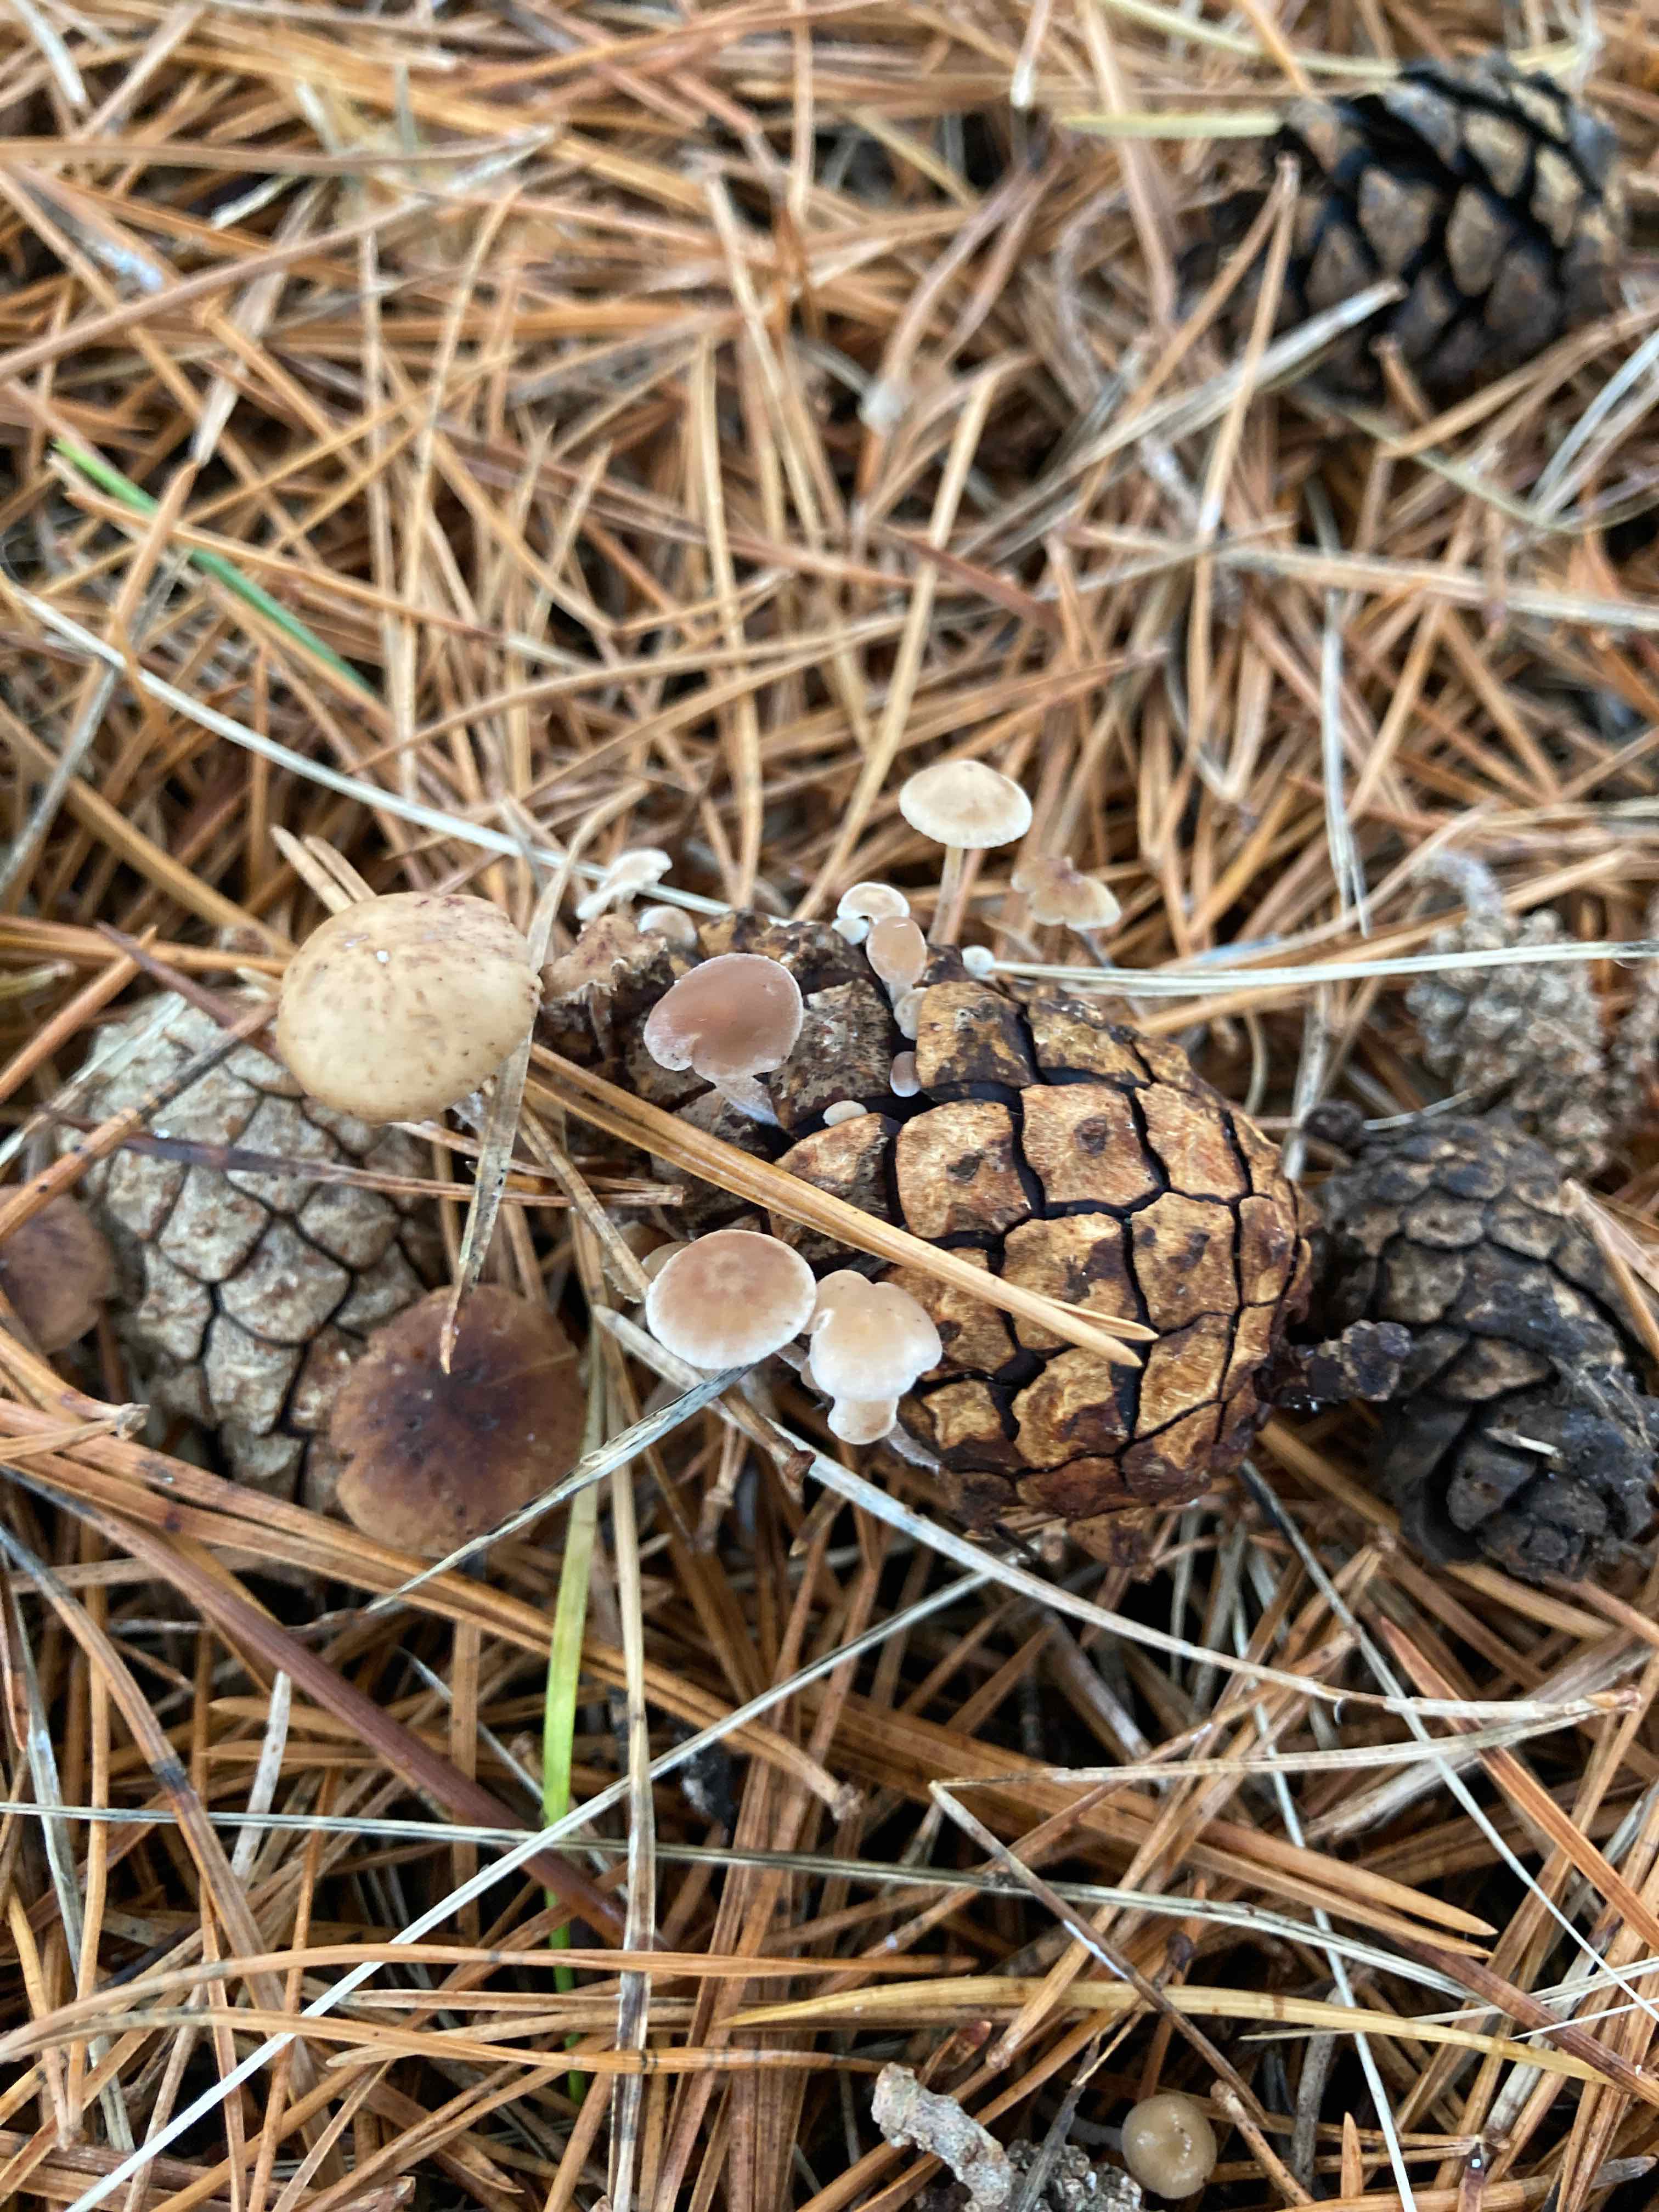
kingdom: Fungi
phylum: Basidiomycota
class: Agaricomycetes
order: Agaricales
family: Marasmiaceae
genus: Baeospora
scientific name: Baeospora myosura
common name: koglebruskhat
